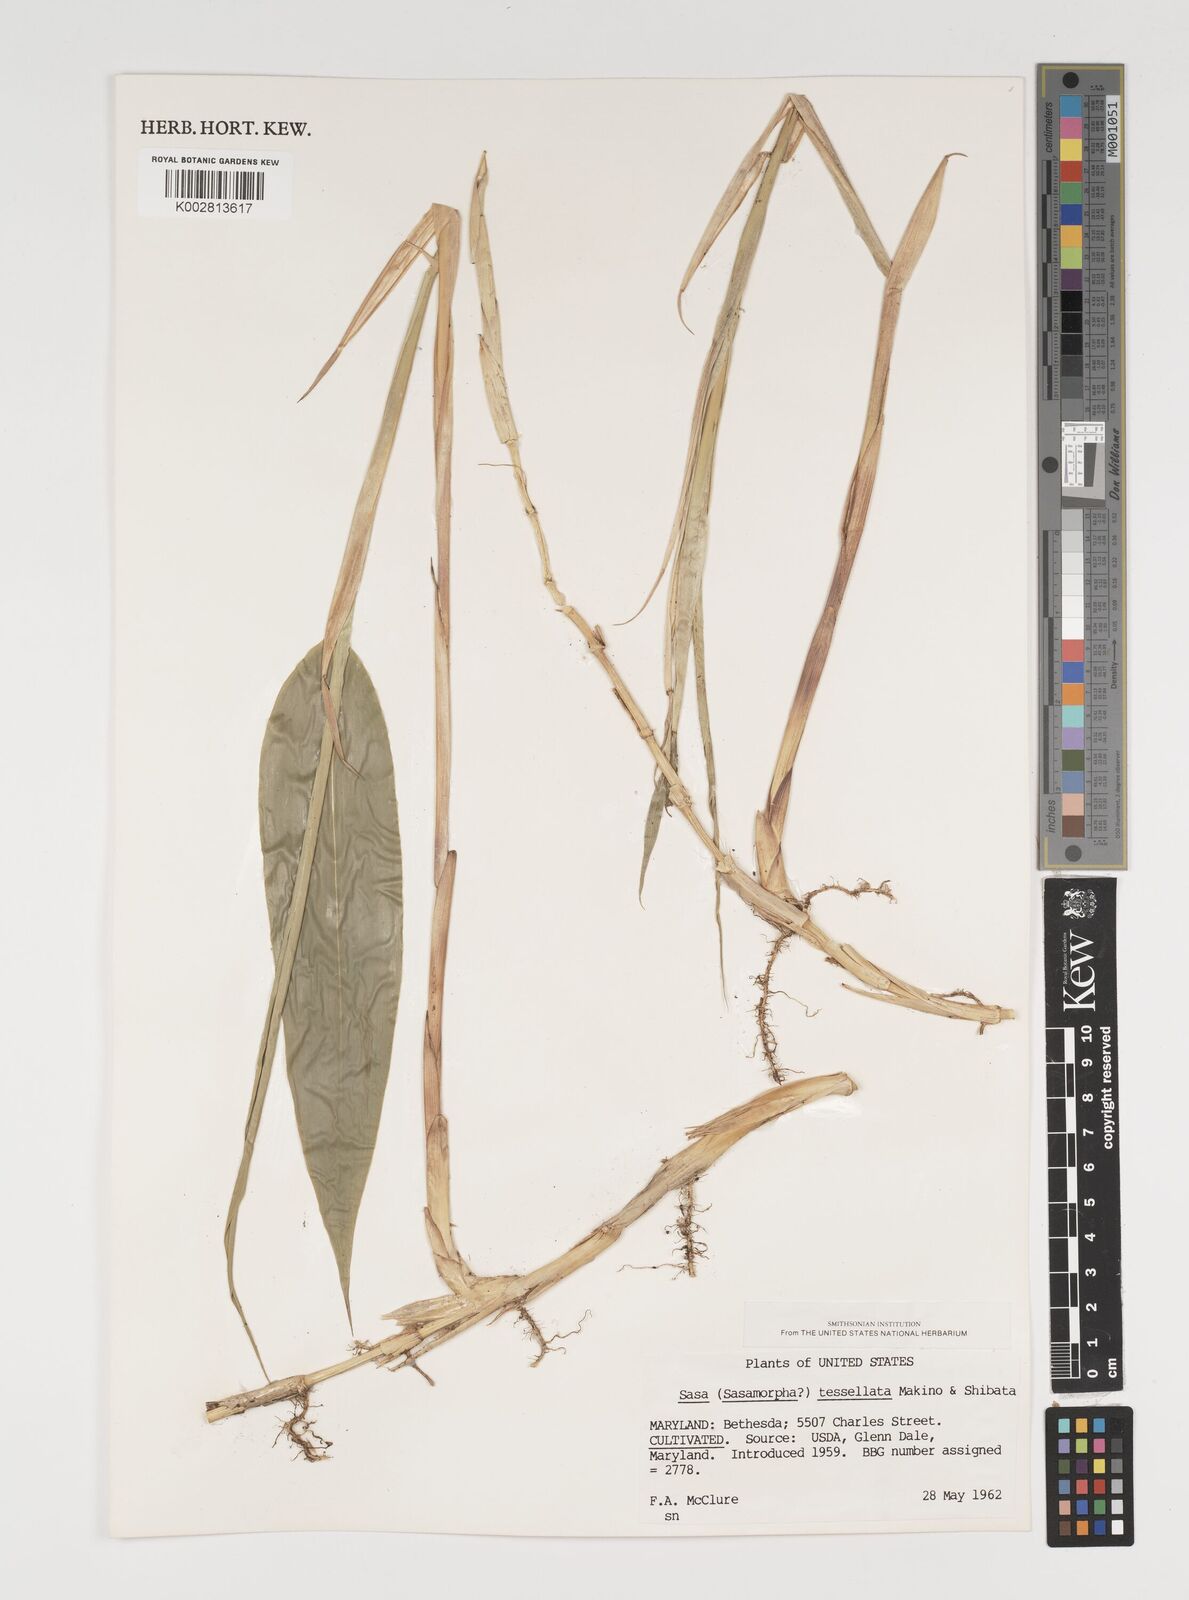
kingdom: Plantae
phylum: Tracheophyta
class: Liliopsida
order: Poales
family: Poaceae
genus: Indocalamus
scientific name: Indocalamus tessellatus
